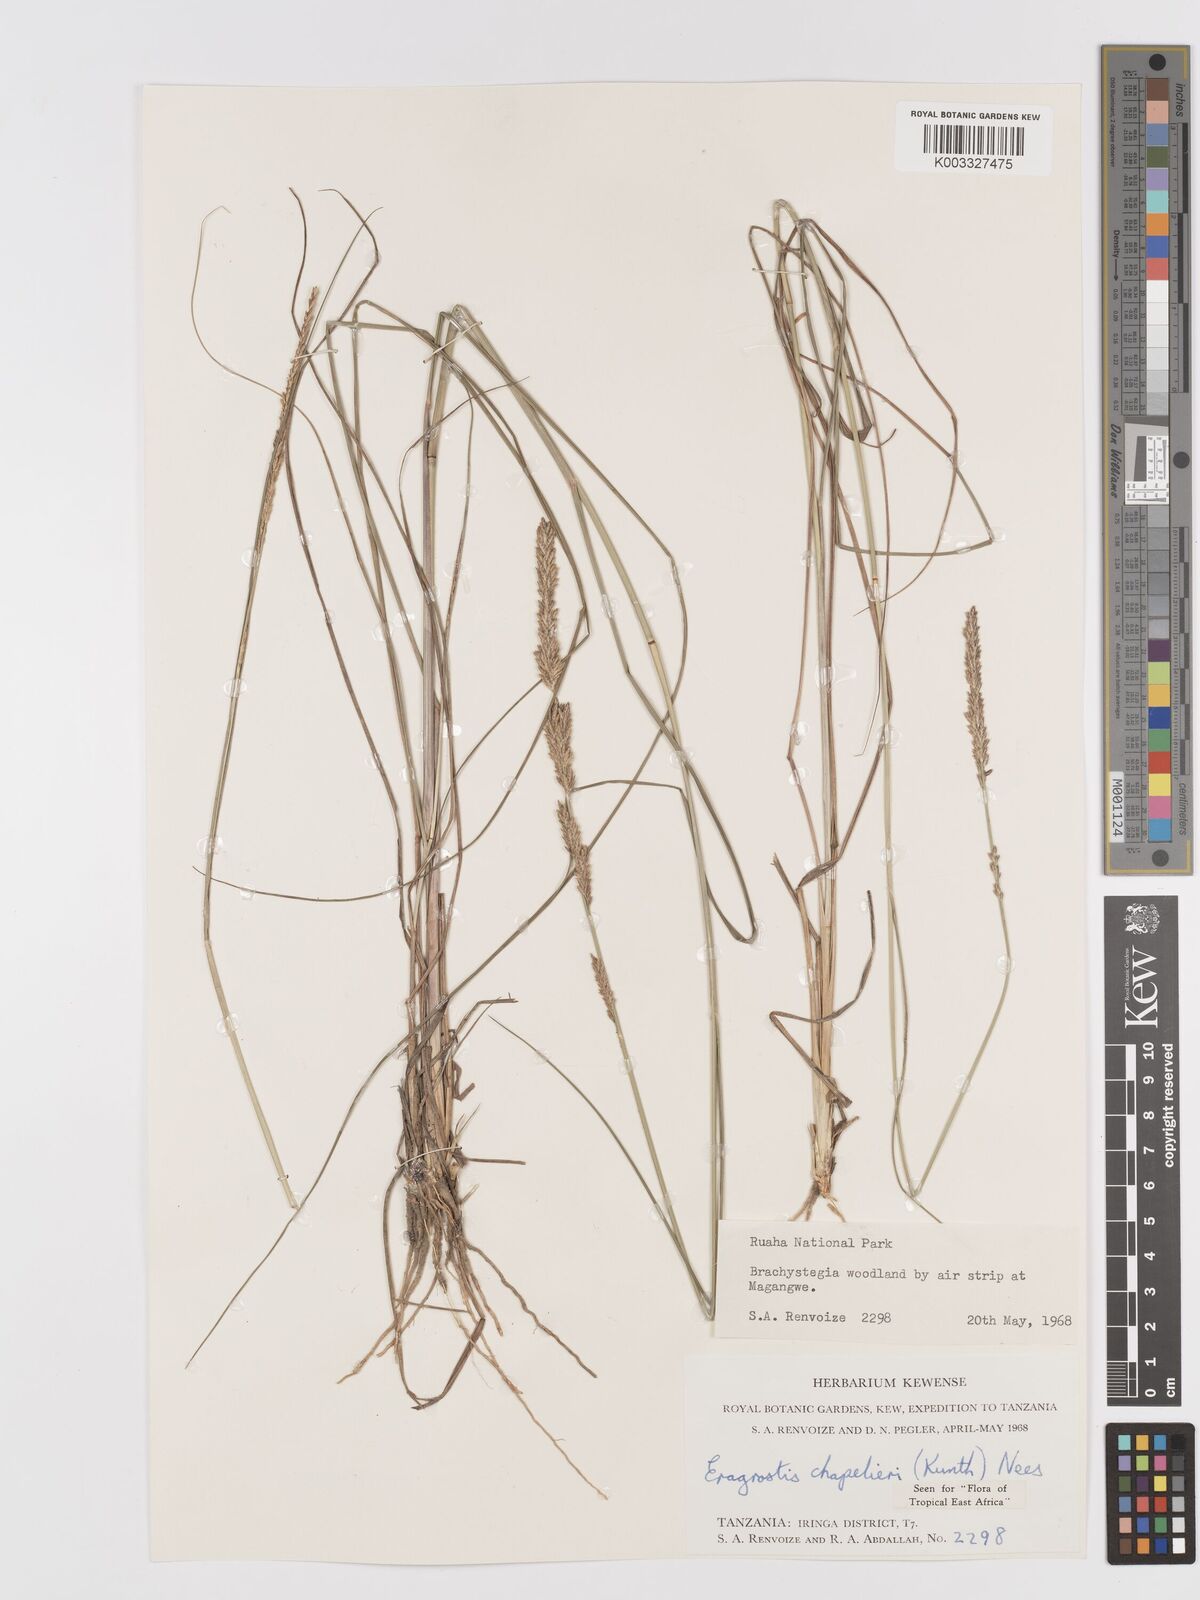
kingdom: Plantae
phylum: Tracheophyta
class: Liliopsida
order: Poales
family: Poaceae
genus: Eragrostis
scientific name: Eragrostis chapelieri
